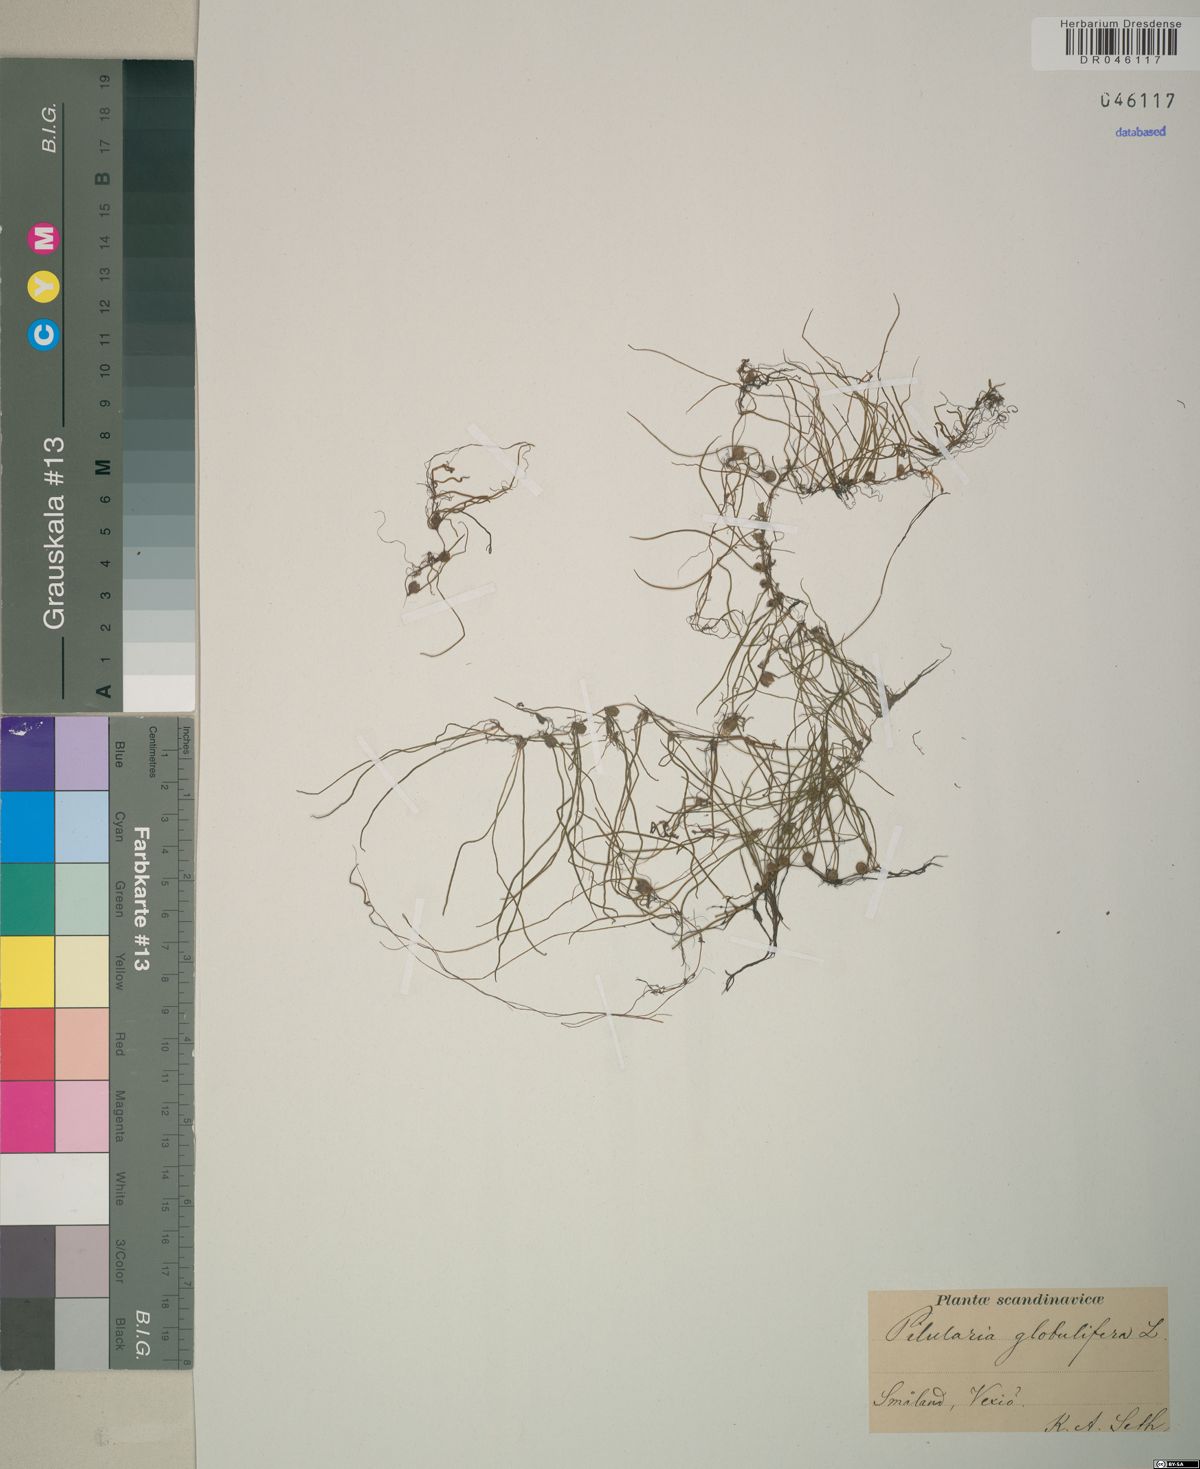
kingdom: Plantae
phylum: Tracheophyta
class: Polypodiopsida
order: Salviniales
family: Marsileaceae
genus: Pilularia
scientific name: Pilularia globulifera
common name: Pillwort
